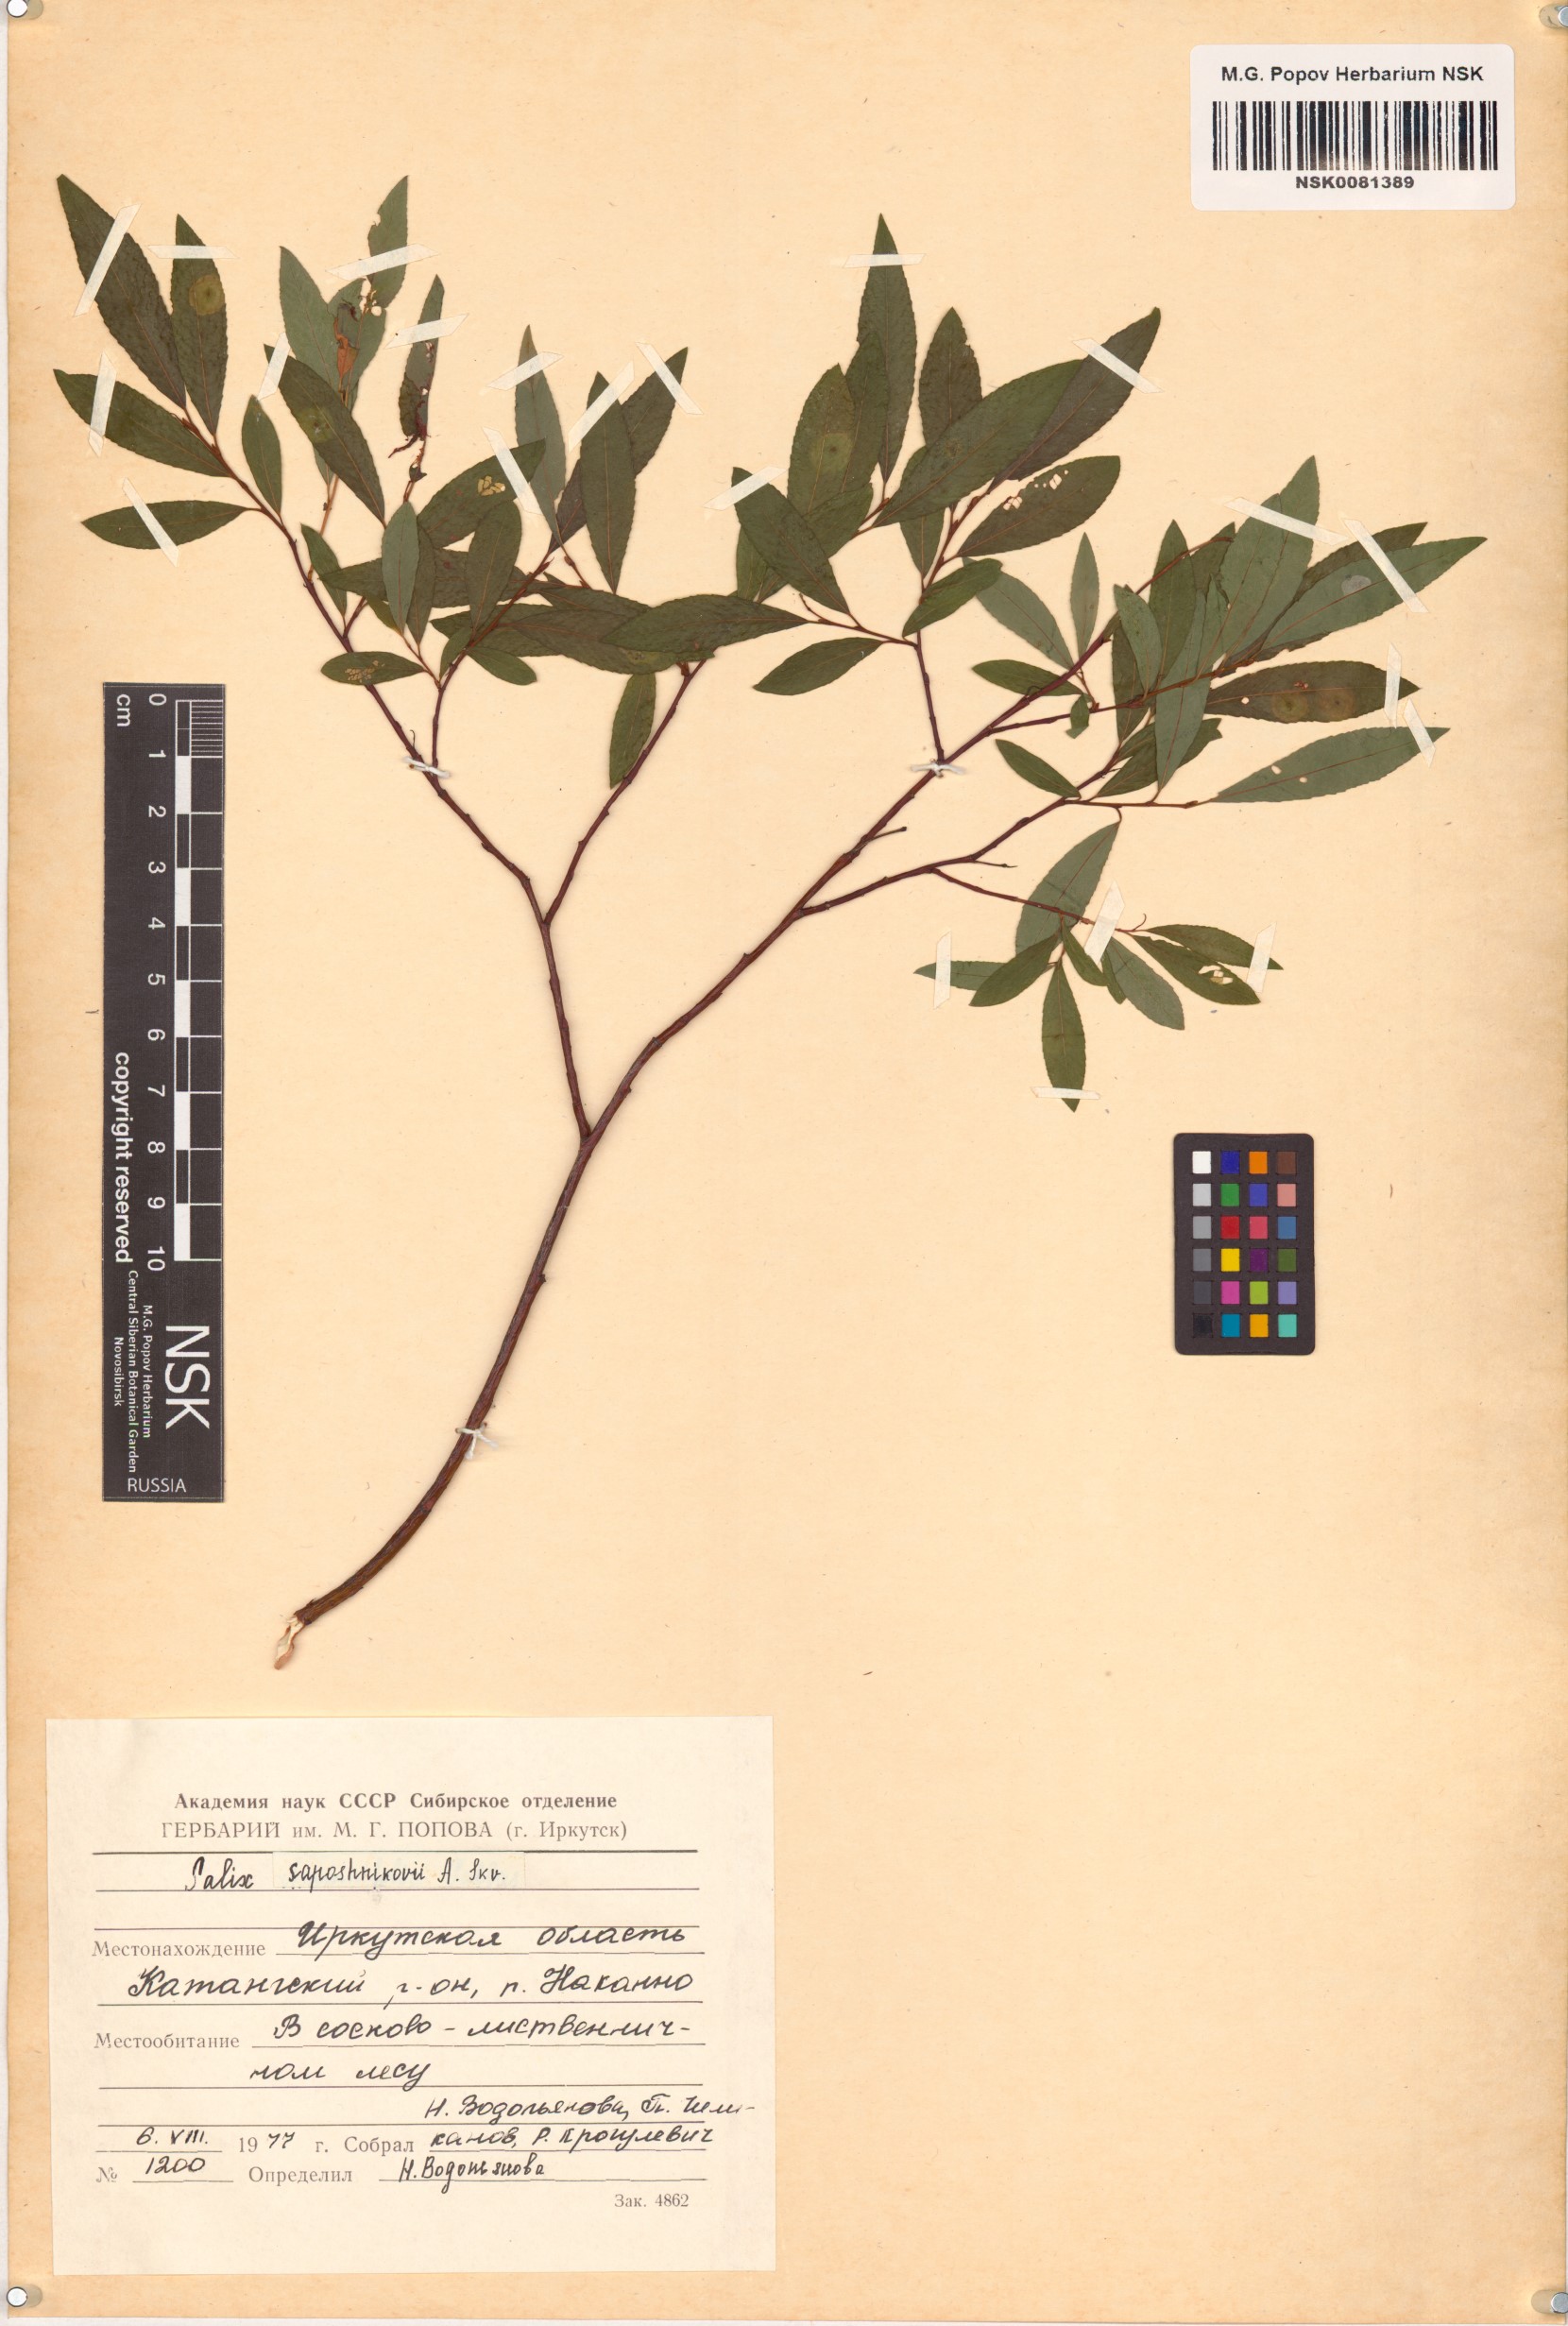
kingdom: Plantae
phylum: Tracheophyta
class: Magnoliopsida
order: Malpighiales
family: Salicaceae
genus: Salix
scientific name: Salix saposhnikovii
